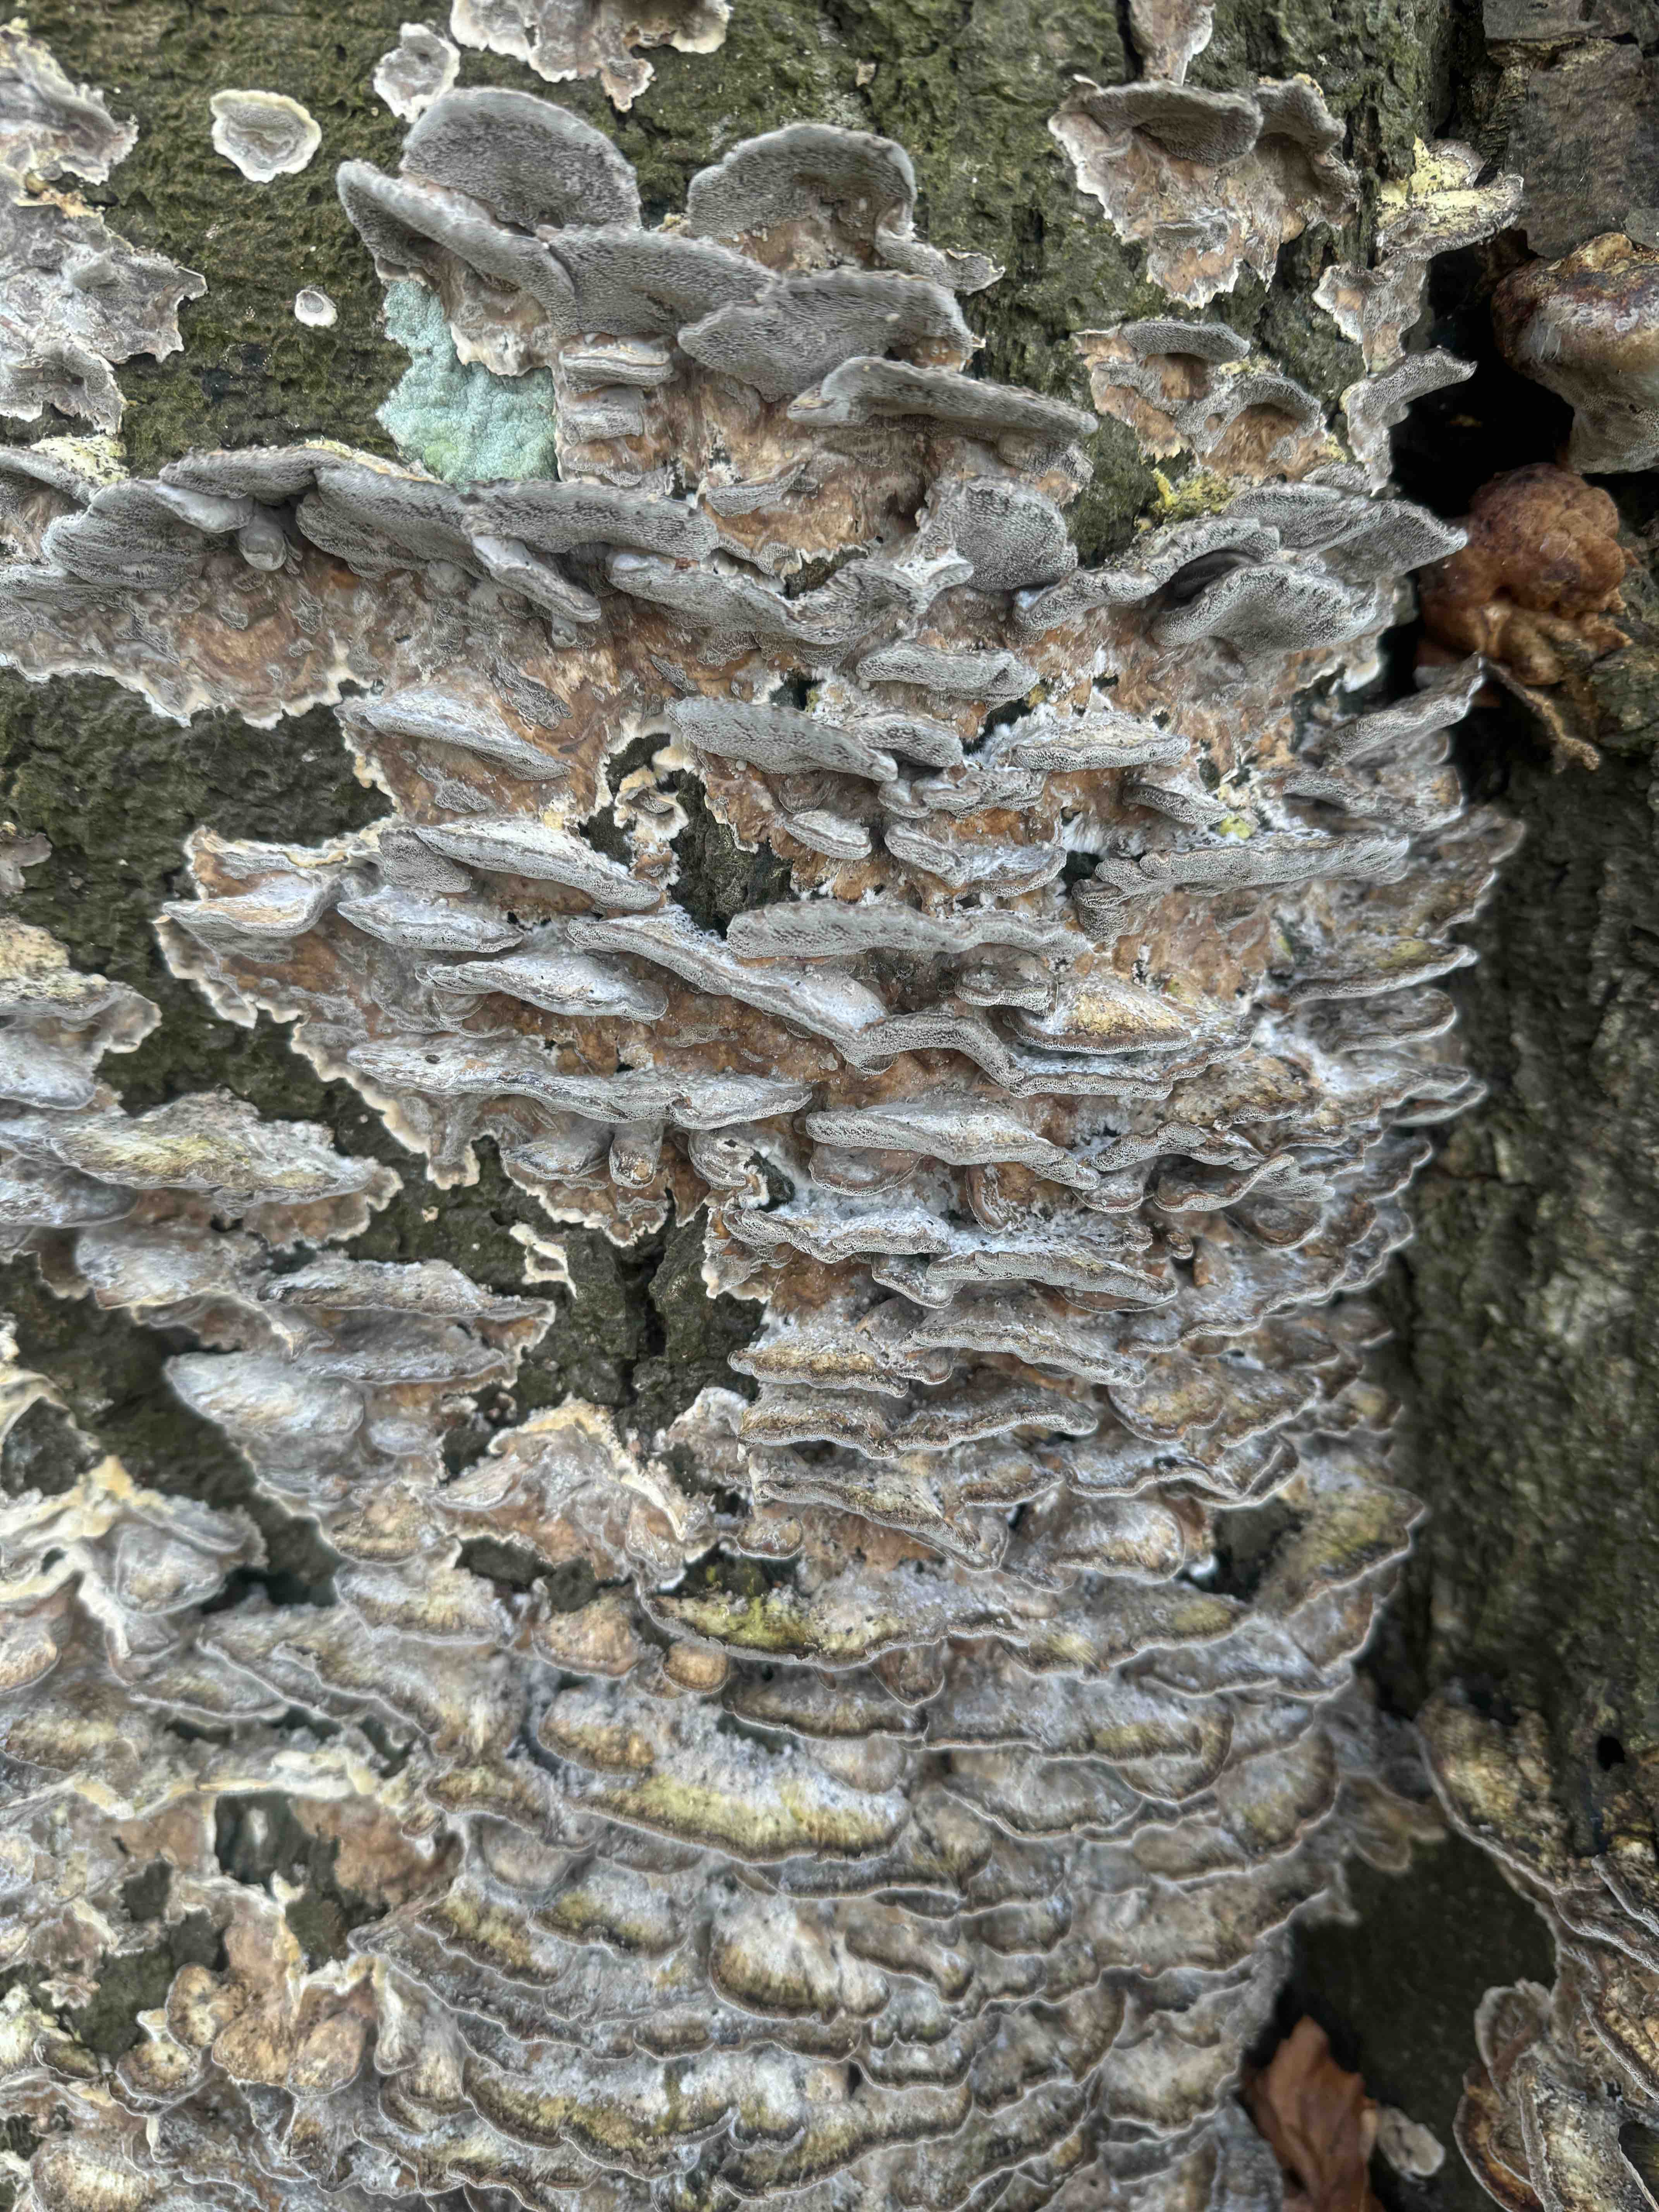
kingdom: Fungi
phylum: Basidiomycota
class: Agaricomycetes
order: Polyporales
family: Phanerochaetaceae
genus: Bjerkandera
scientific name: Bjerkandera adusta
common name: sveden sodporesvamp
